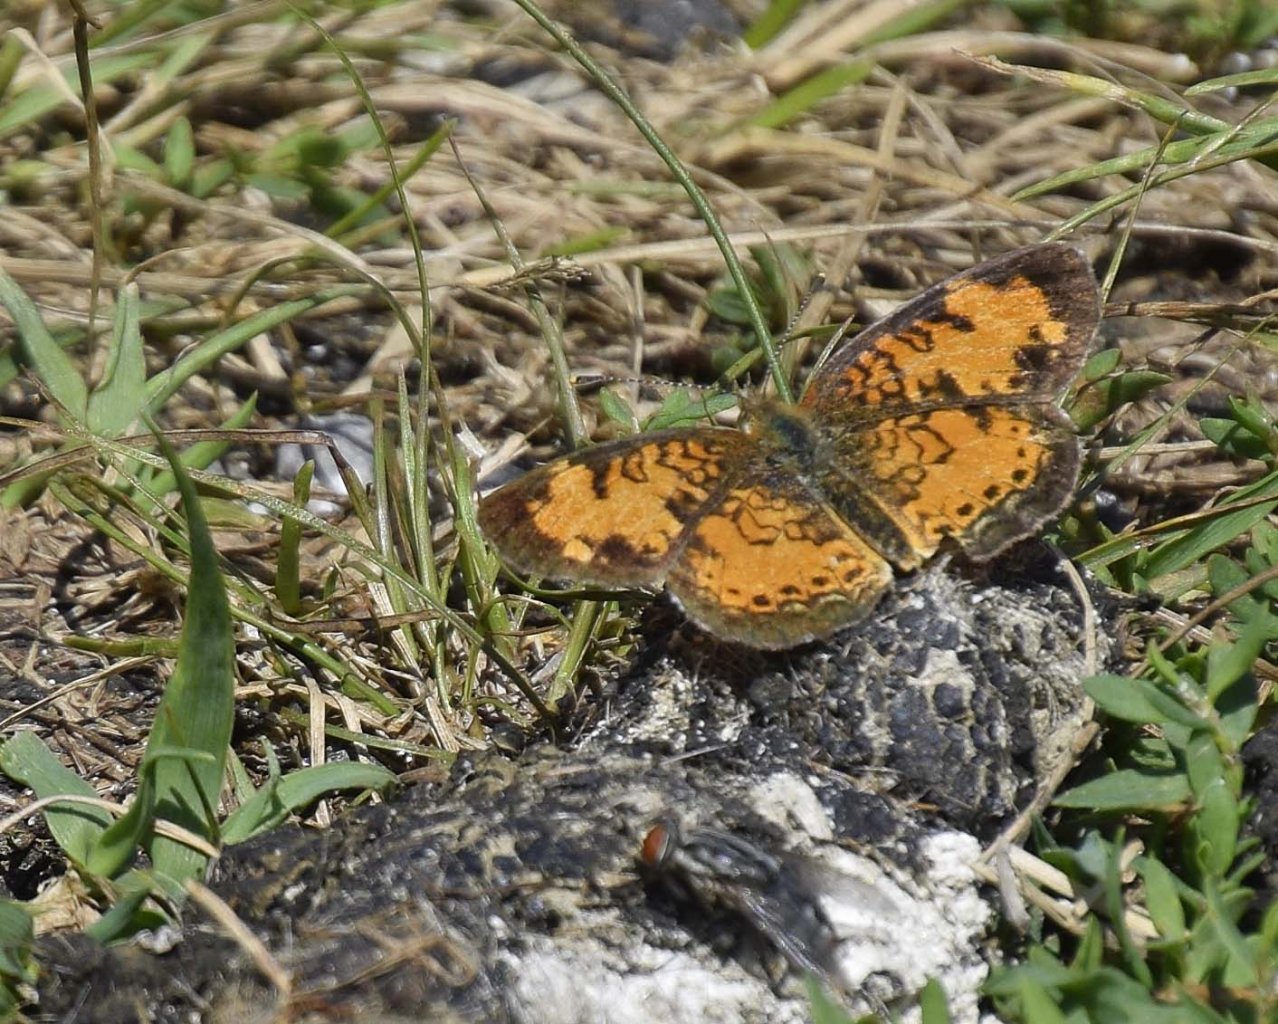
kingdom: Animalia
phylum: Arthropoda
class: Insecta
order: Lepidoptera
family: Nymphalidae
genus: Phyciodes
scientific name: Phyciodes tharos
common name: Northern Crescent
